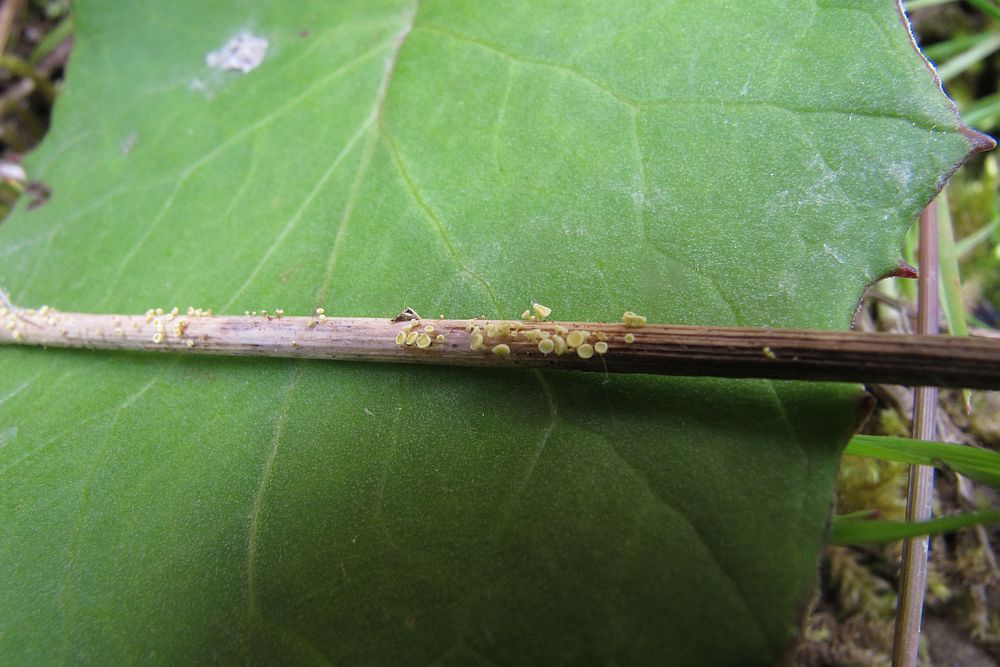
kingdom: Fungi
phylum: Ascomycota
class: Leotiomycetes
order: Helotiales
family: Lachnaceae
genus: Lachnum
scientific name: Lachnum tenuissimum
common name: spinkel frynseskive
